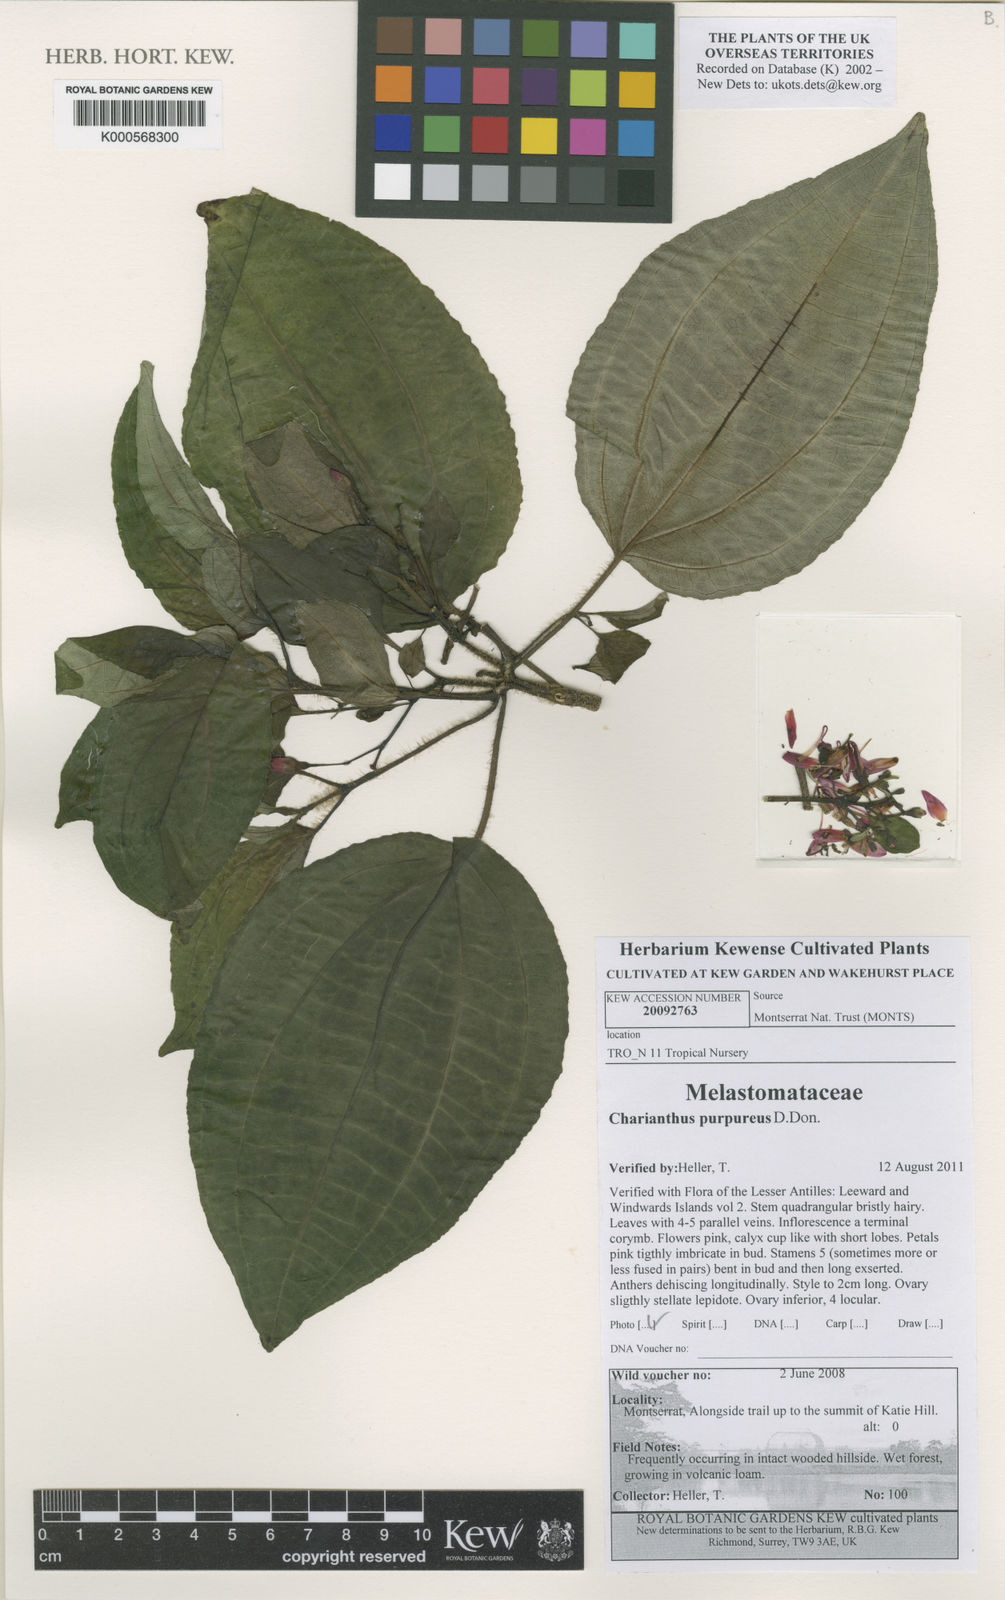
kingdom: Plantae
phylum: Tracheophyta
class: Magnoliopsida
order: Solanales
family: Solanaceae
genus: Solanum
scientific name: Solanum dulcamara
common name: Climbing nightshade
